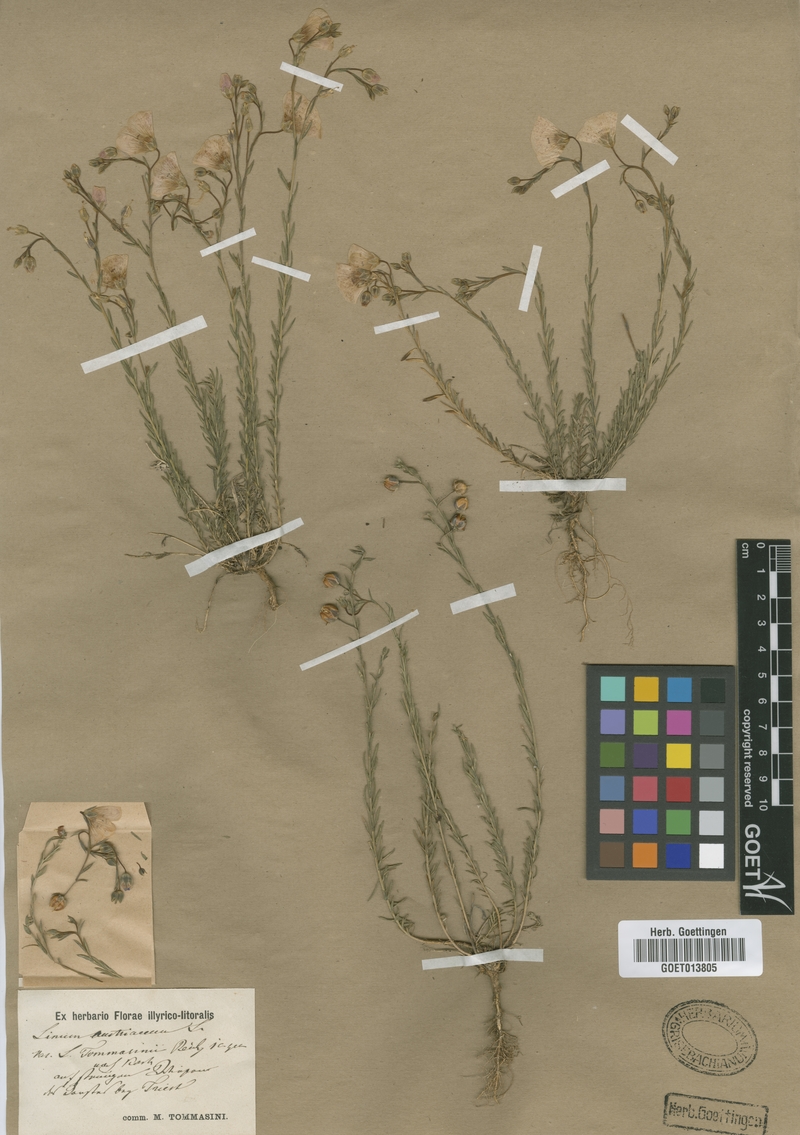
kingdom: Plantae
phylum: Tracheophyta
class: Magnoliopsida
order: Malpighiales
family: Linaceae
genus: Linum
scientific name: Linum austriacum
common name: Austrian flax
